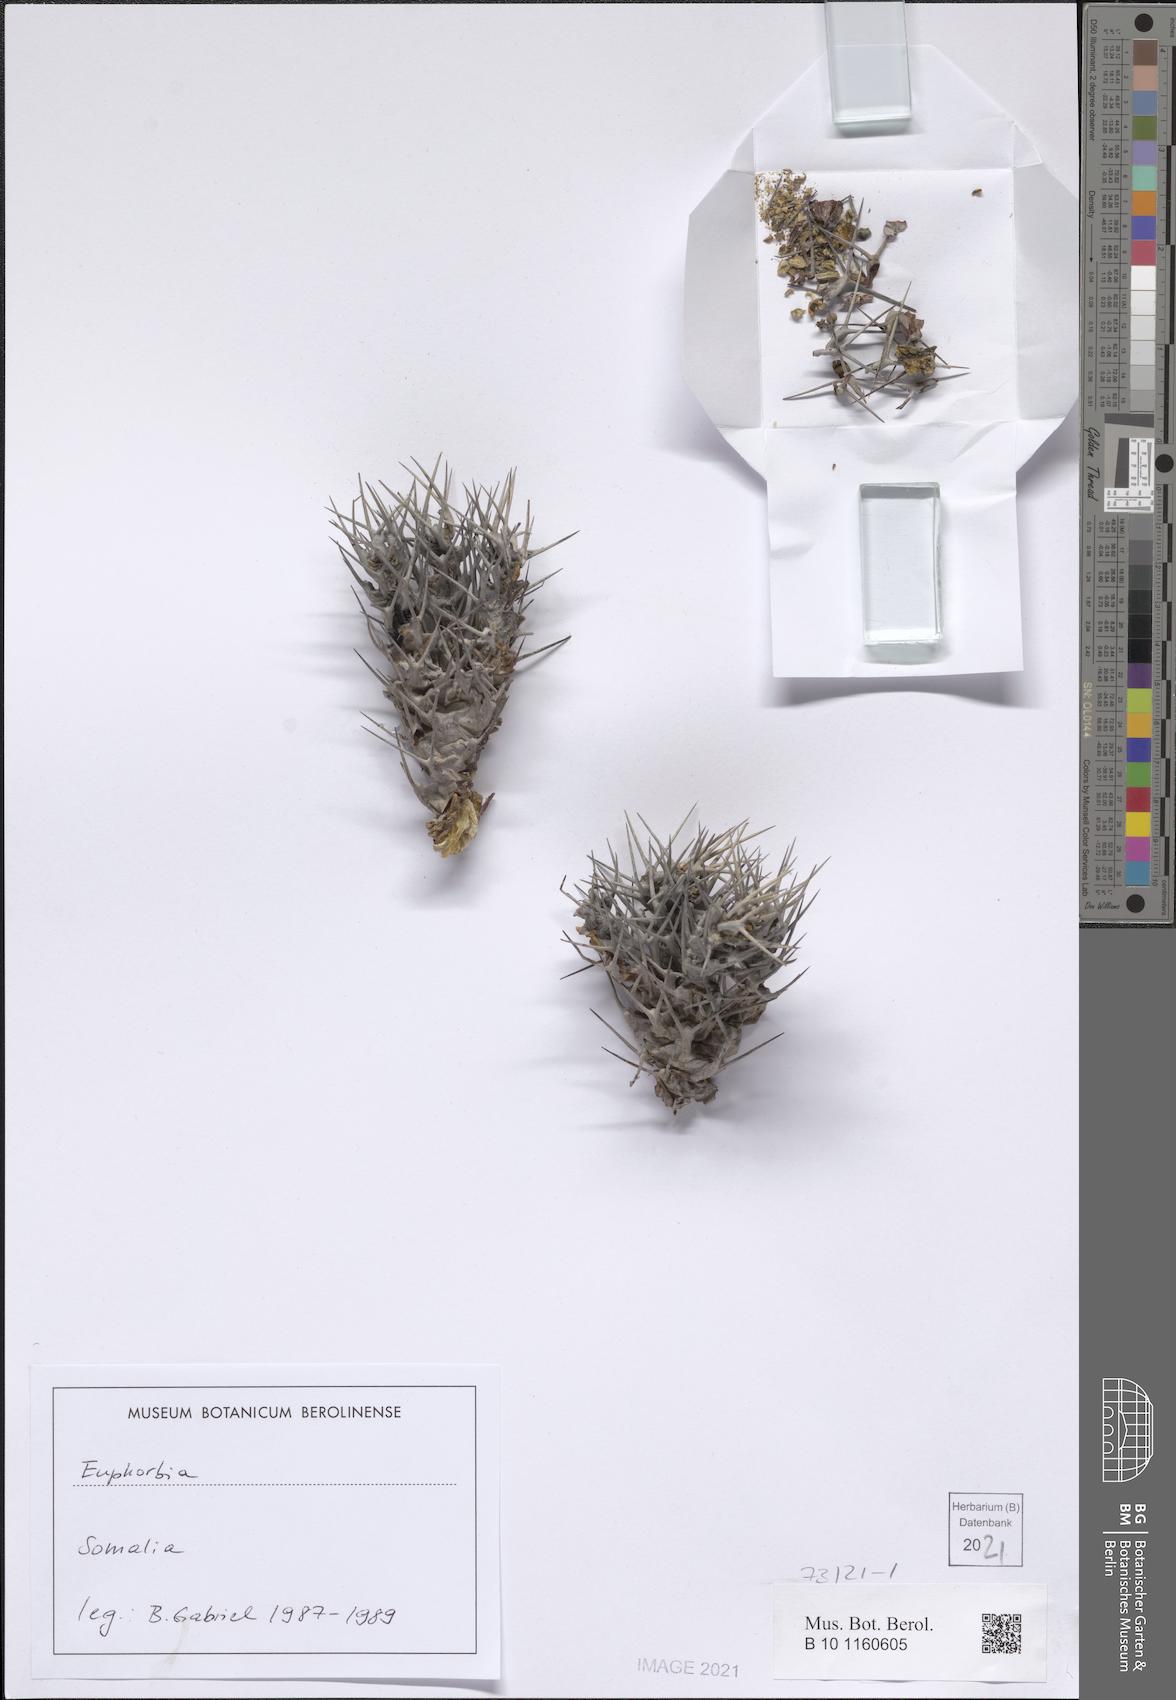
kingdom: Plantae
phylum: Tracheophyta
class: Magnoliopsida
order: Malpighiales
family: Euphorbiaceae
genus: Euphorbia
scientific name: Euphorbia atrox
